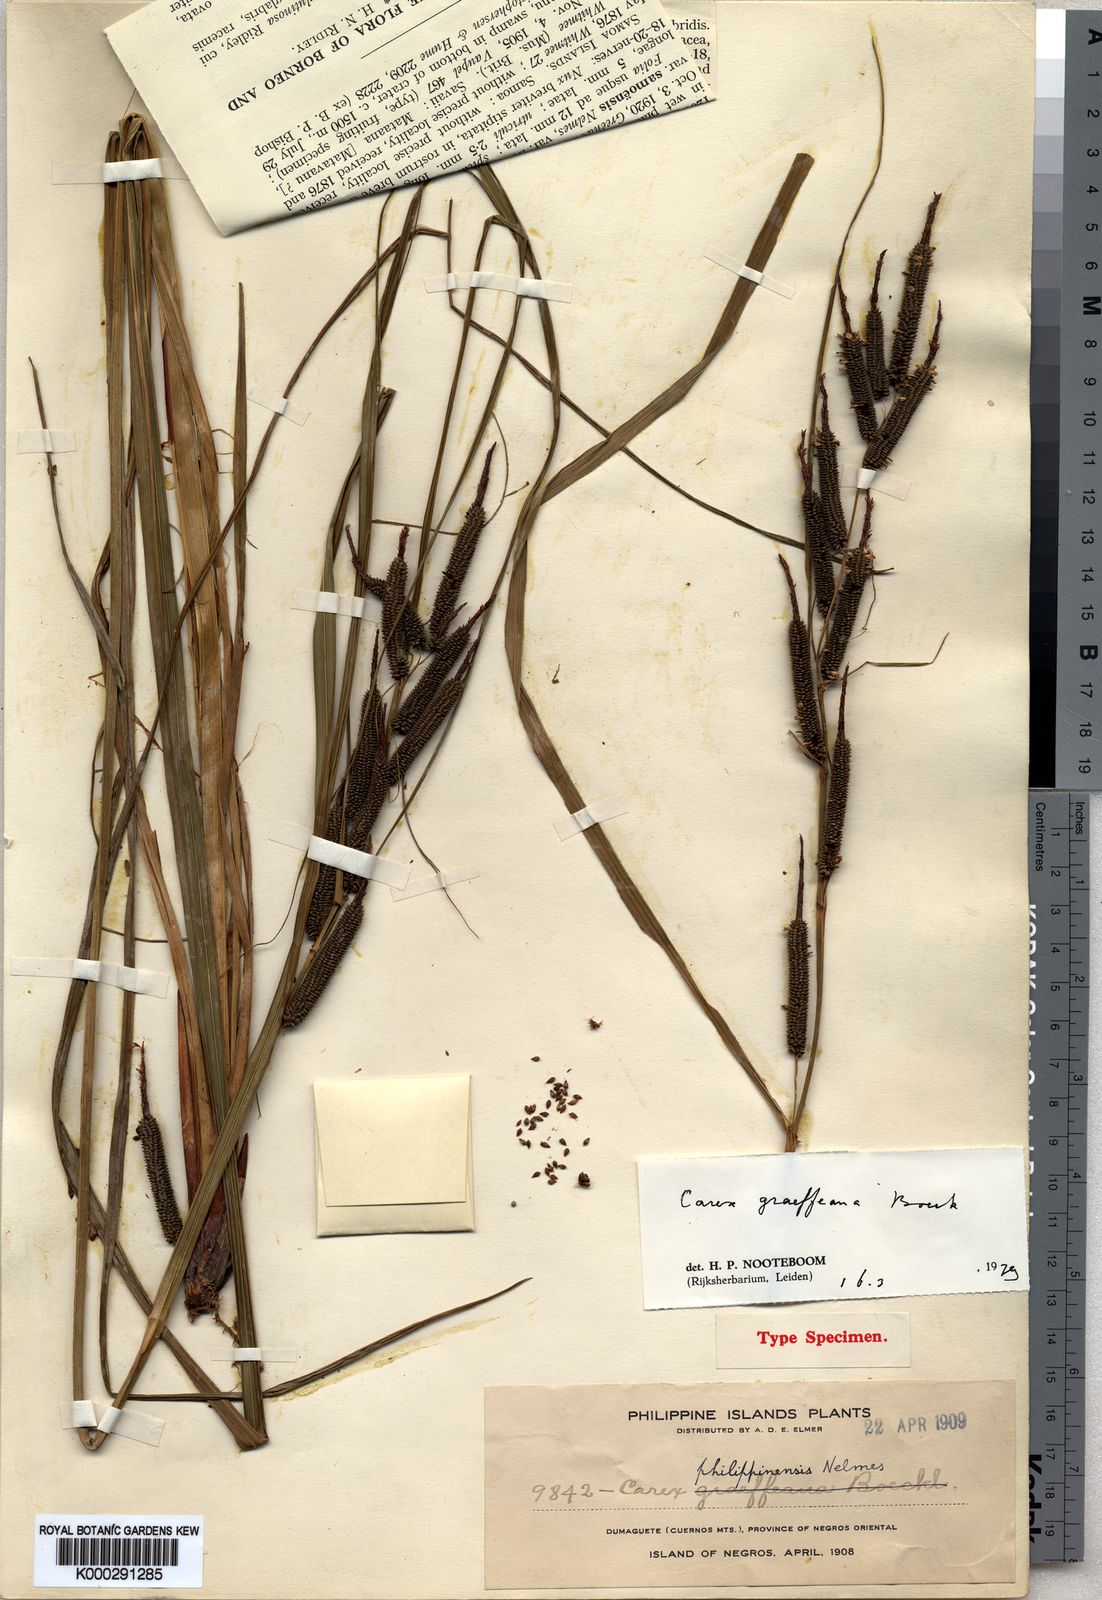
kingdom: Plantae
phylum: Tracheophyta
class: Liliopsida
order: Poales
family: Cyperaceae
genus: Carex
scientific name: Carex graeffeana
